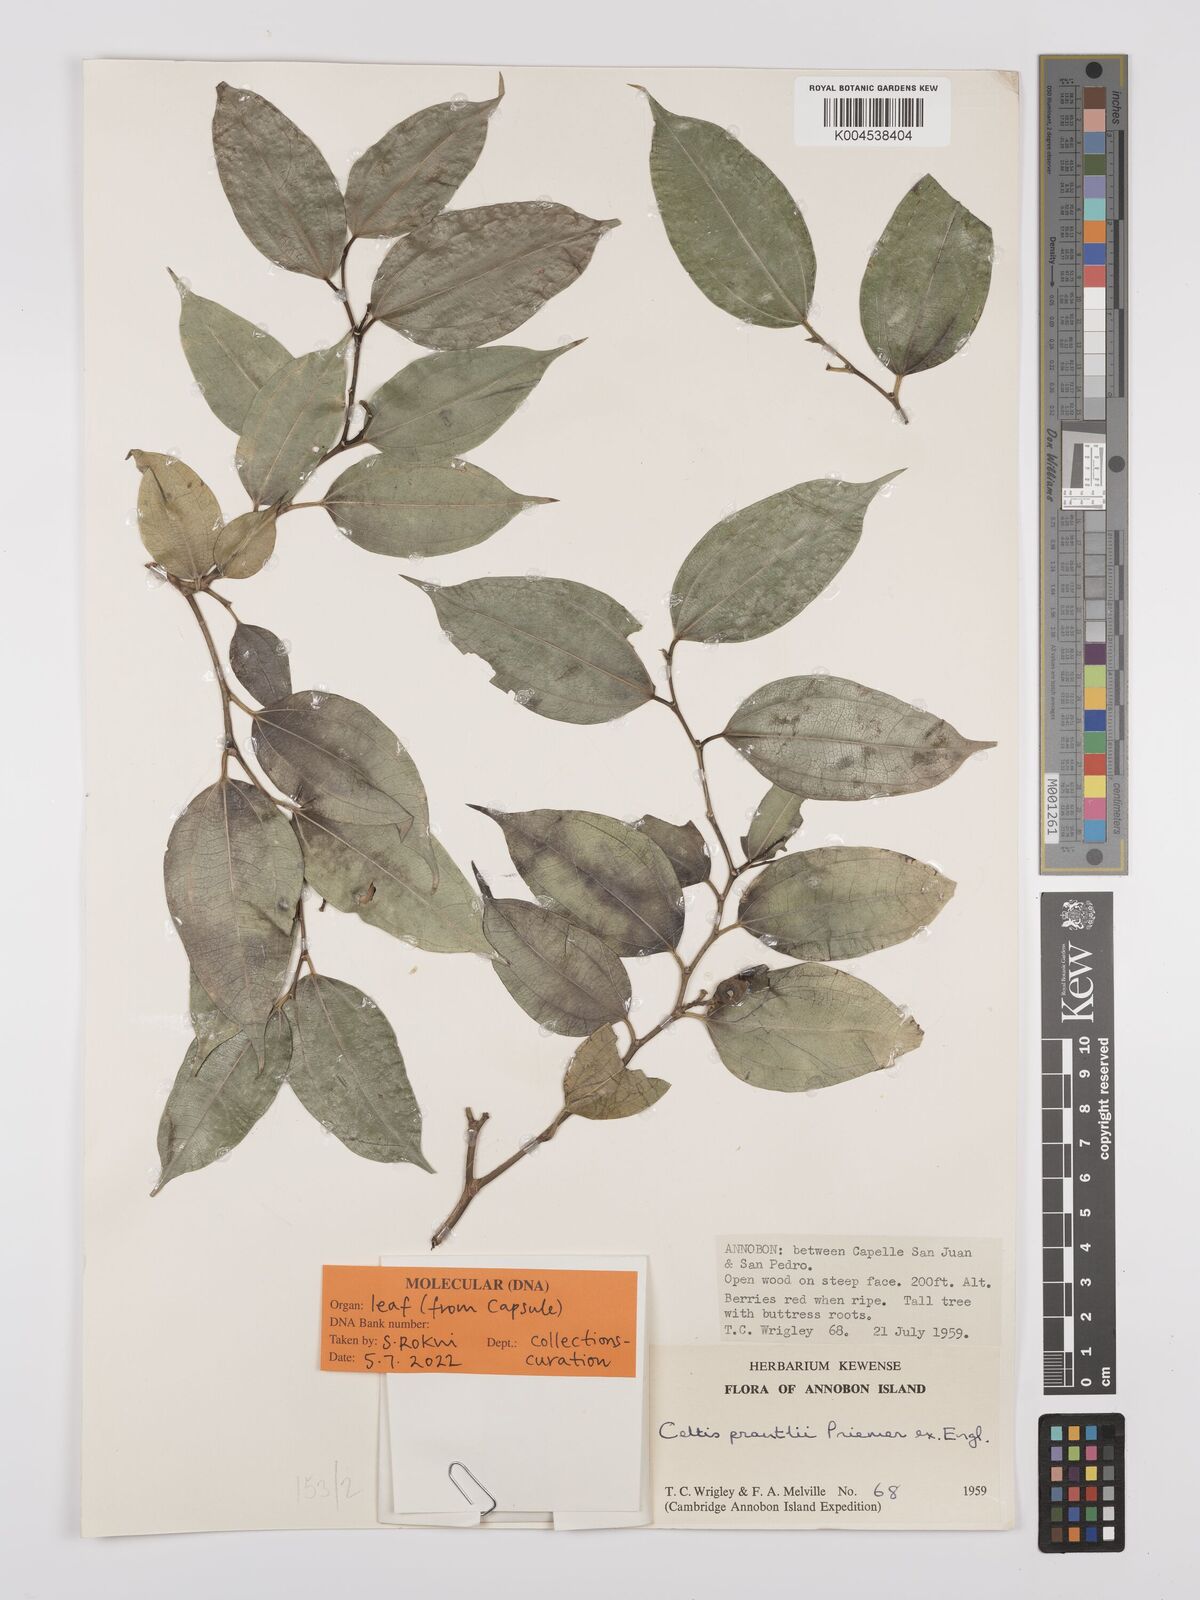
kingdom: Plantae
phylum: Tracheophyta
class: Magnoliopsida
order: Rosales
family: Cannabaceae
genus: Celtis
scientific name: Celtis philippensis
